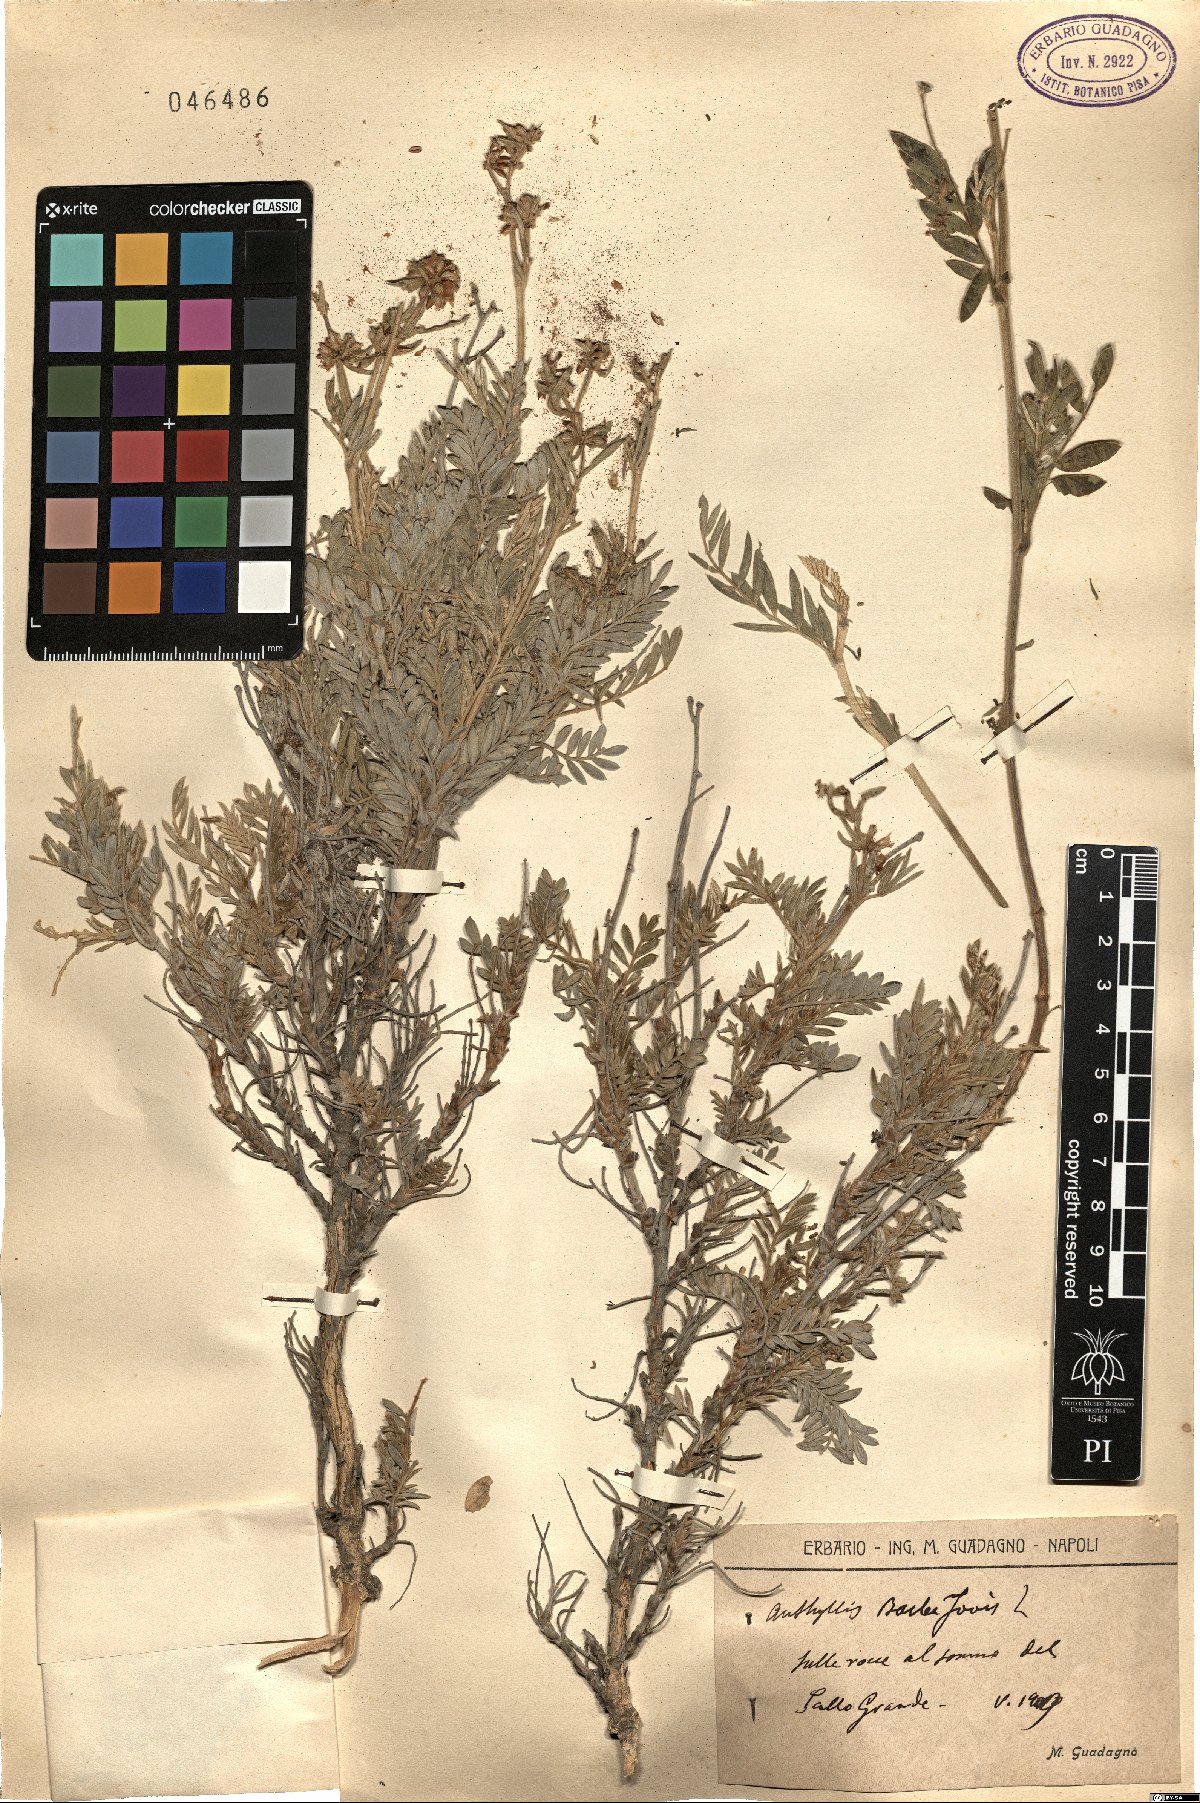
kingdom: Plantae
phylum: Tracheophyta
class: Magnoliopsida
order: Fabales
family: Fabaceae
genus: Anthyllis
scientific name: Anthyllis barba-jovis
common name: Jupiter's-beard
